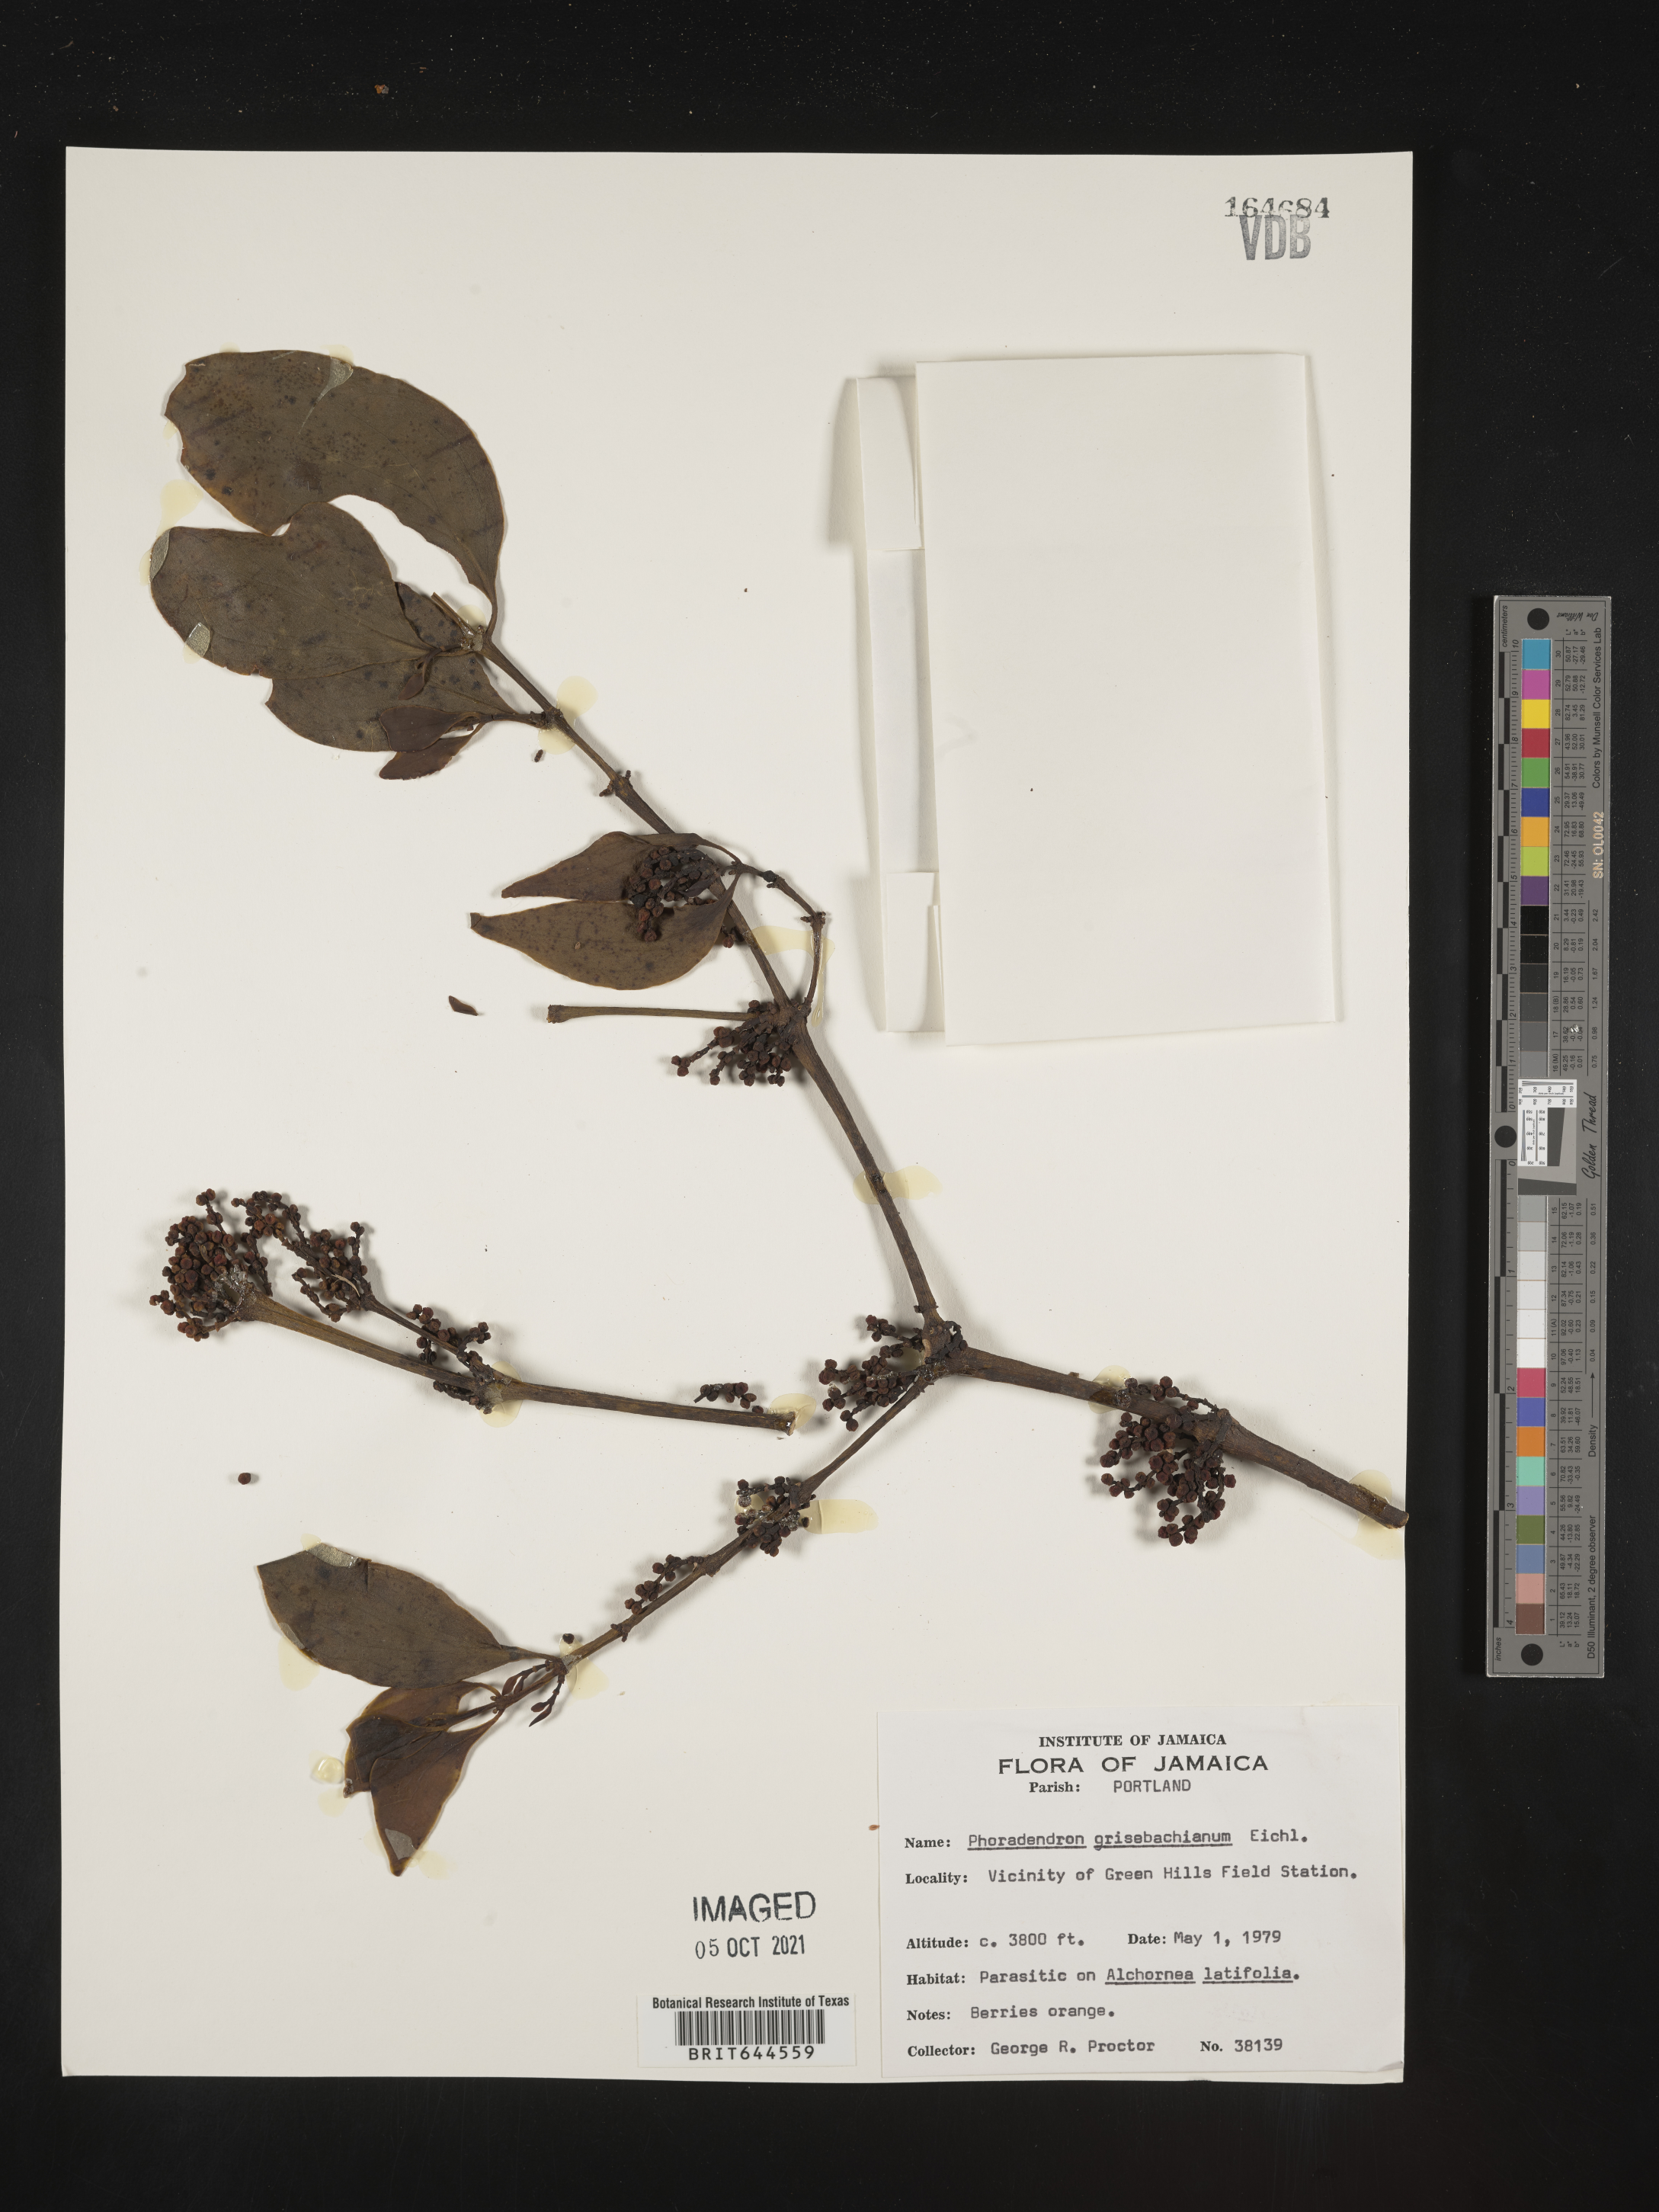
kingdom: Plantae
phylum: Tracheophyta
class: Magnoliopsida
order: Santalales
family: Viscaceae
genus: Phoradendron
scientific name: Phoradendron
